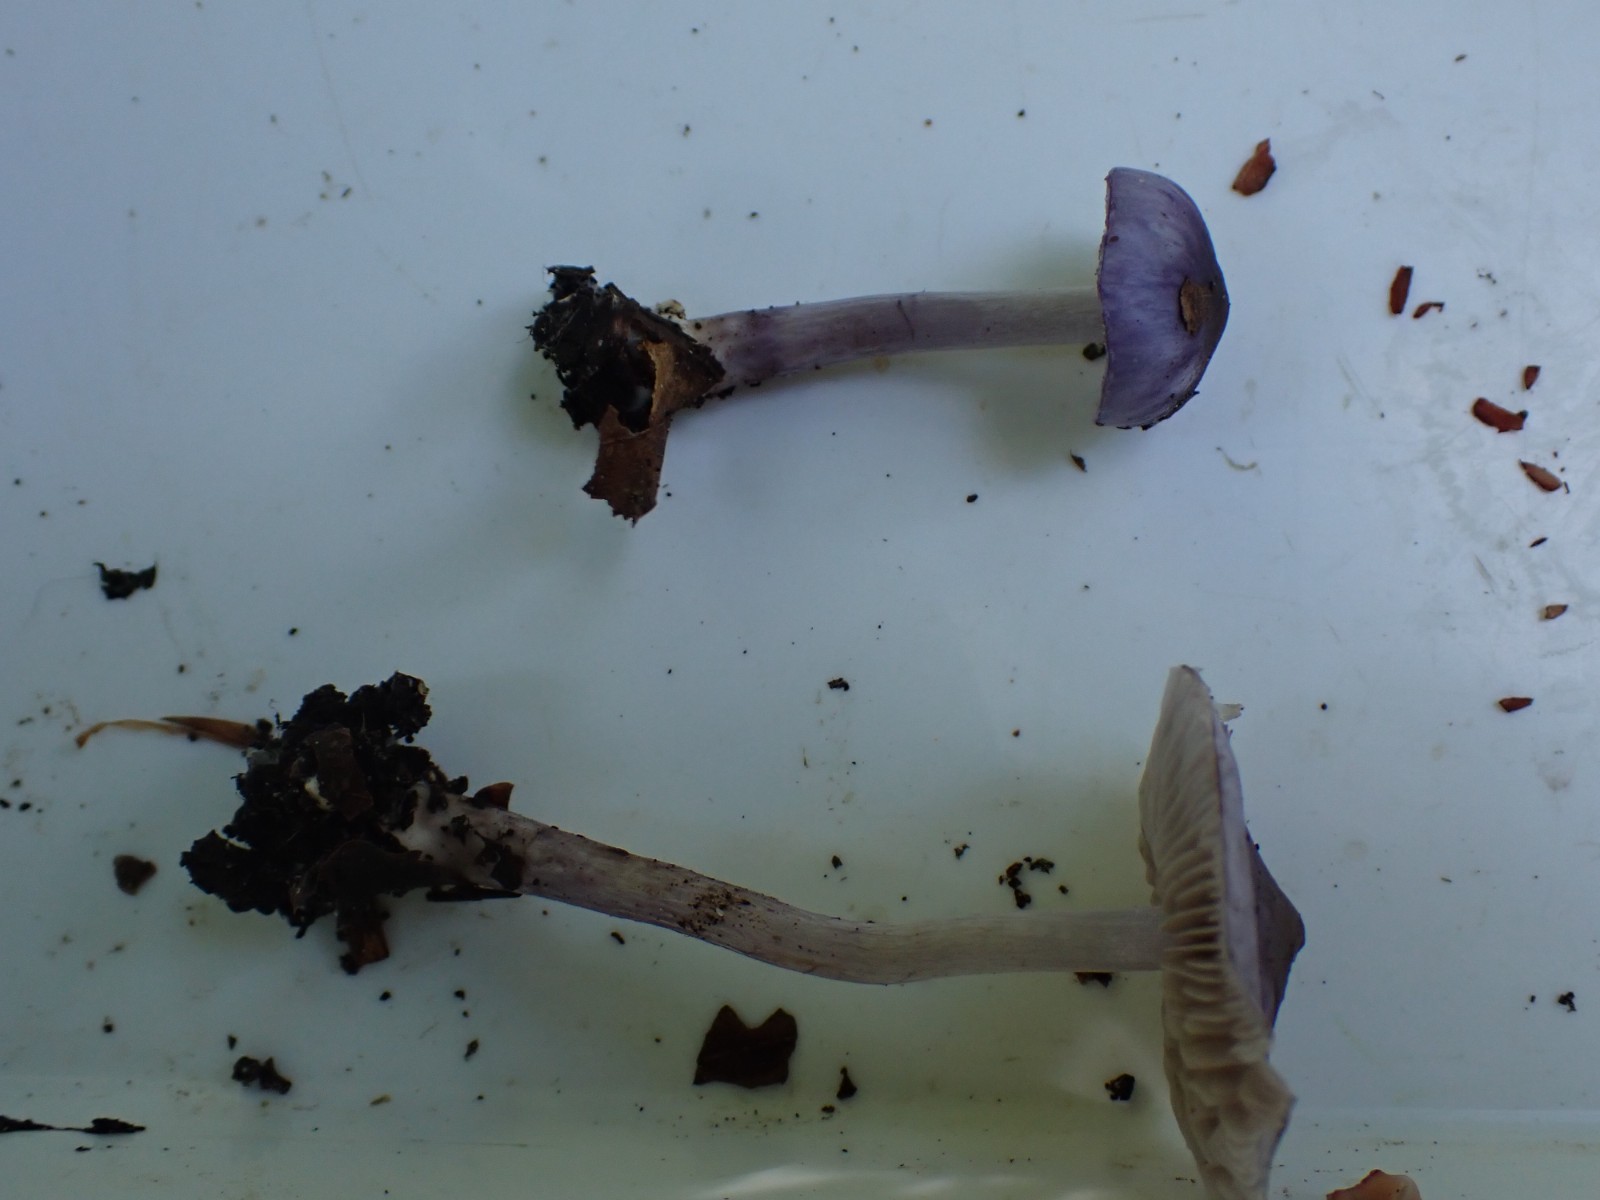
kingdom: Fungi
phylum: Basidiomycota
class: Agaricomycetes
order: Agaricales
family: Inocybaceae
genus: Inocybe
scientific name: Inocybe geophylla
